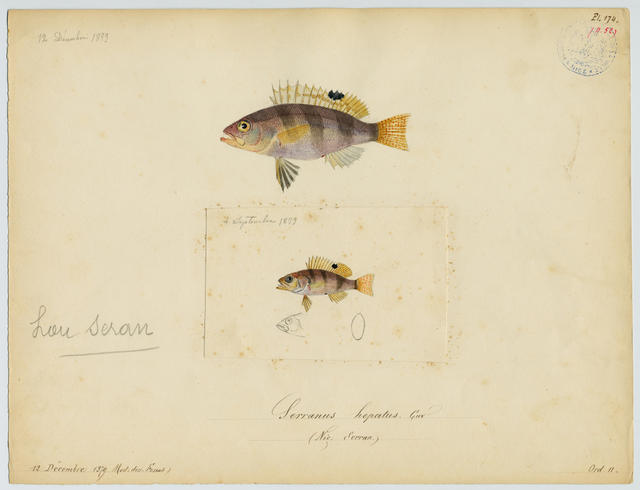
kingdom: Animalia
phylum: Chordata
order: Perciformes
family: Serranidae
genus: Serranus
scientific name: Serranus hepatus
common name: Brown comber
